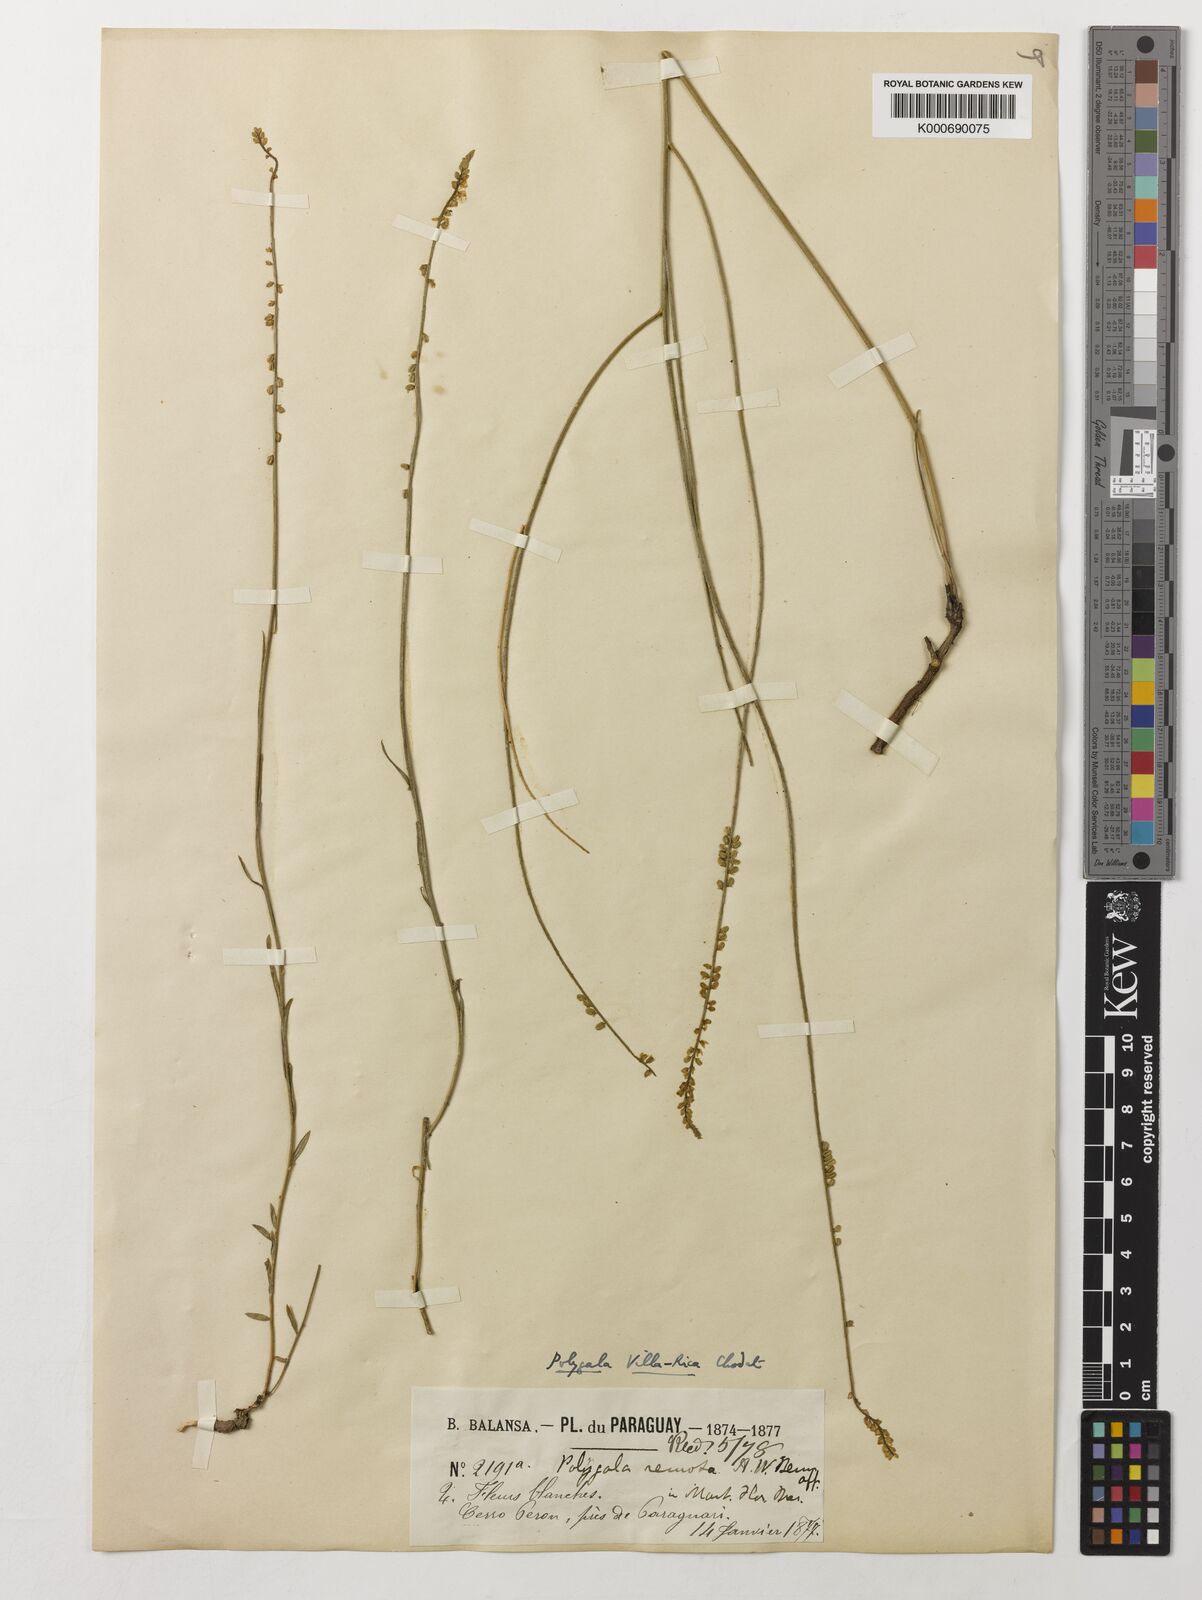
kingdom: Plantae
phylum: Tracheophyta
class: Magnoliopsida
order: Fabales
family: Polygalaceae
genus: Polygala
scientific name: Polygala remota
